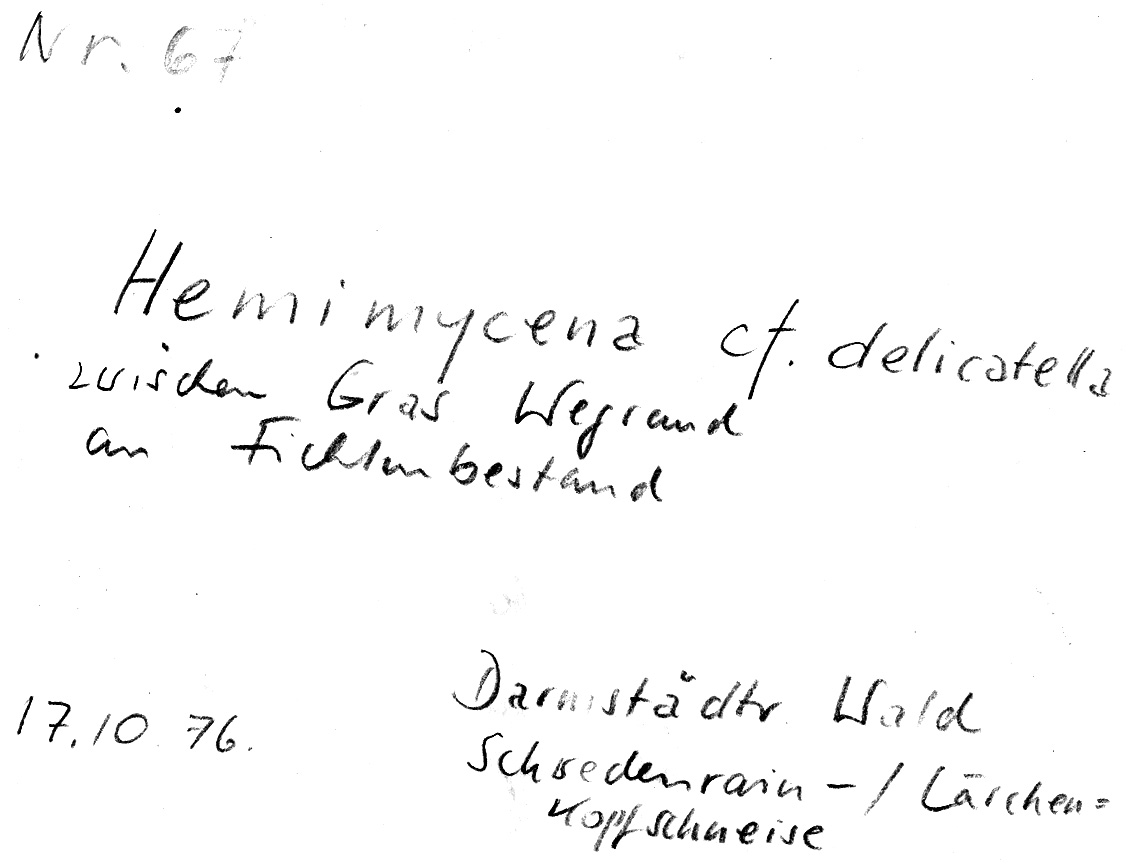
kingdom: Fungi
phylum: Basidiomycota
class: Agaricomycetes
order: Agaricales
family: Mycenaceae
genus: Hemimycena
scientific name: Hemimycena lactea
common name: Milky bonnet
